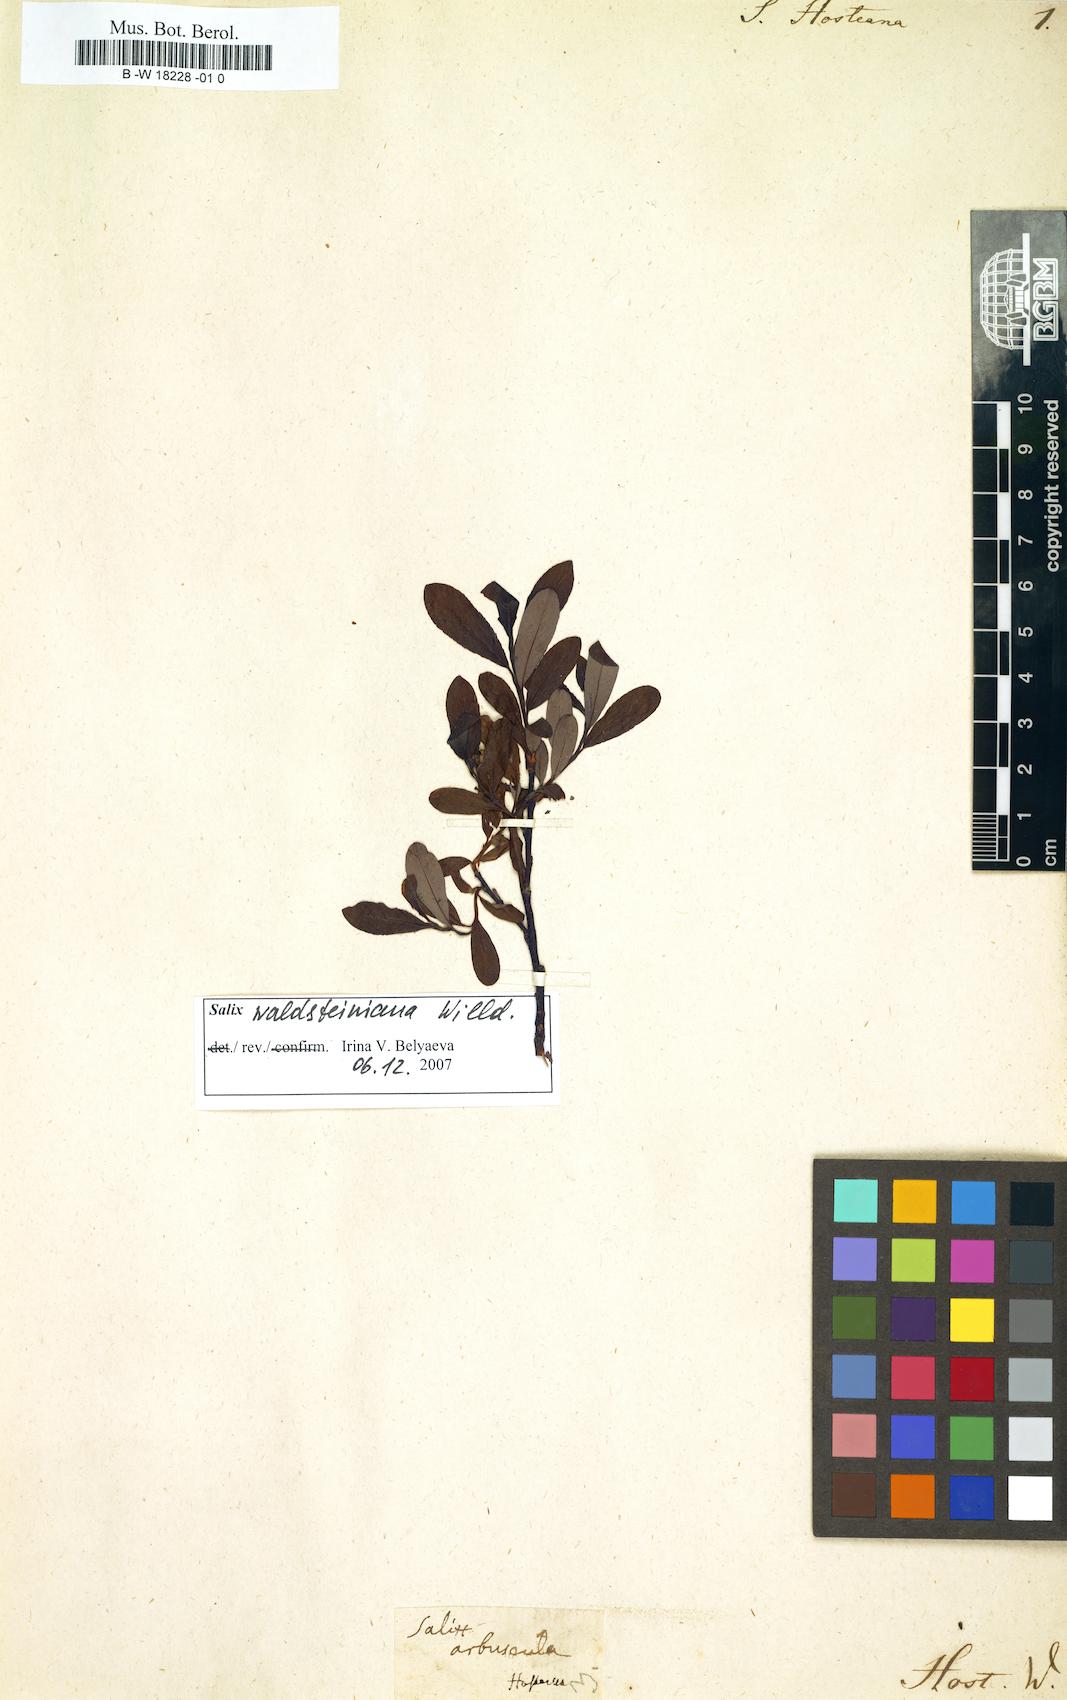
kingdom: Plantae
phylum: Tracheophyta
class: Magnoliopsida
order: Malpighiales
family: Salicaceae
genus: Salix
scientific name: Salix foetida
